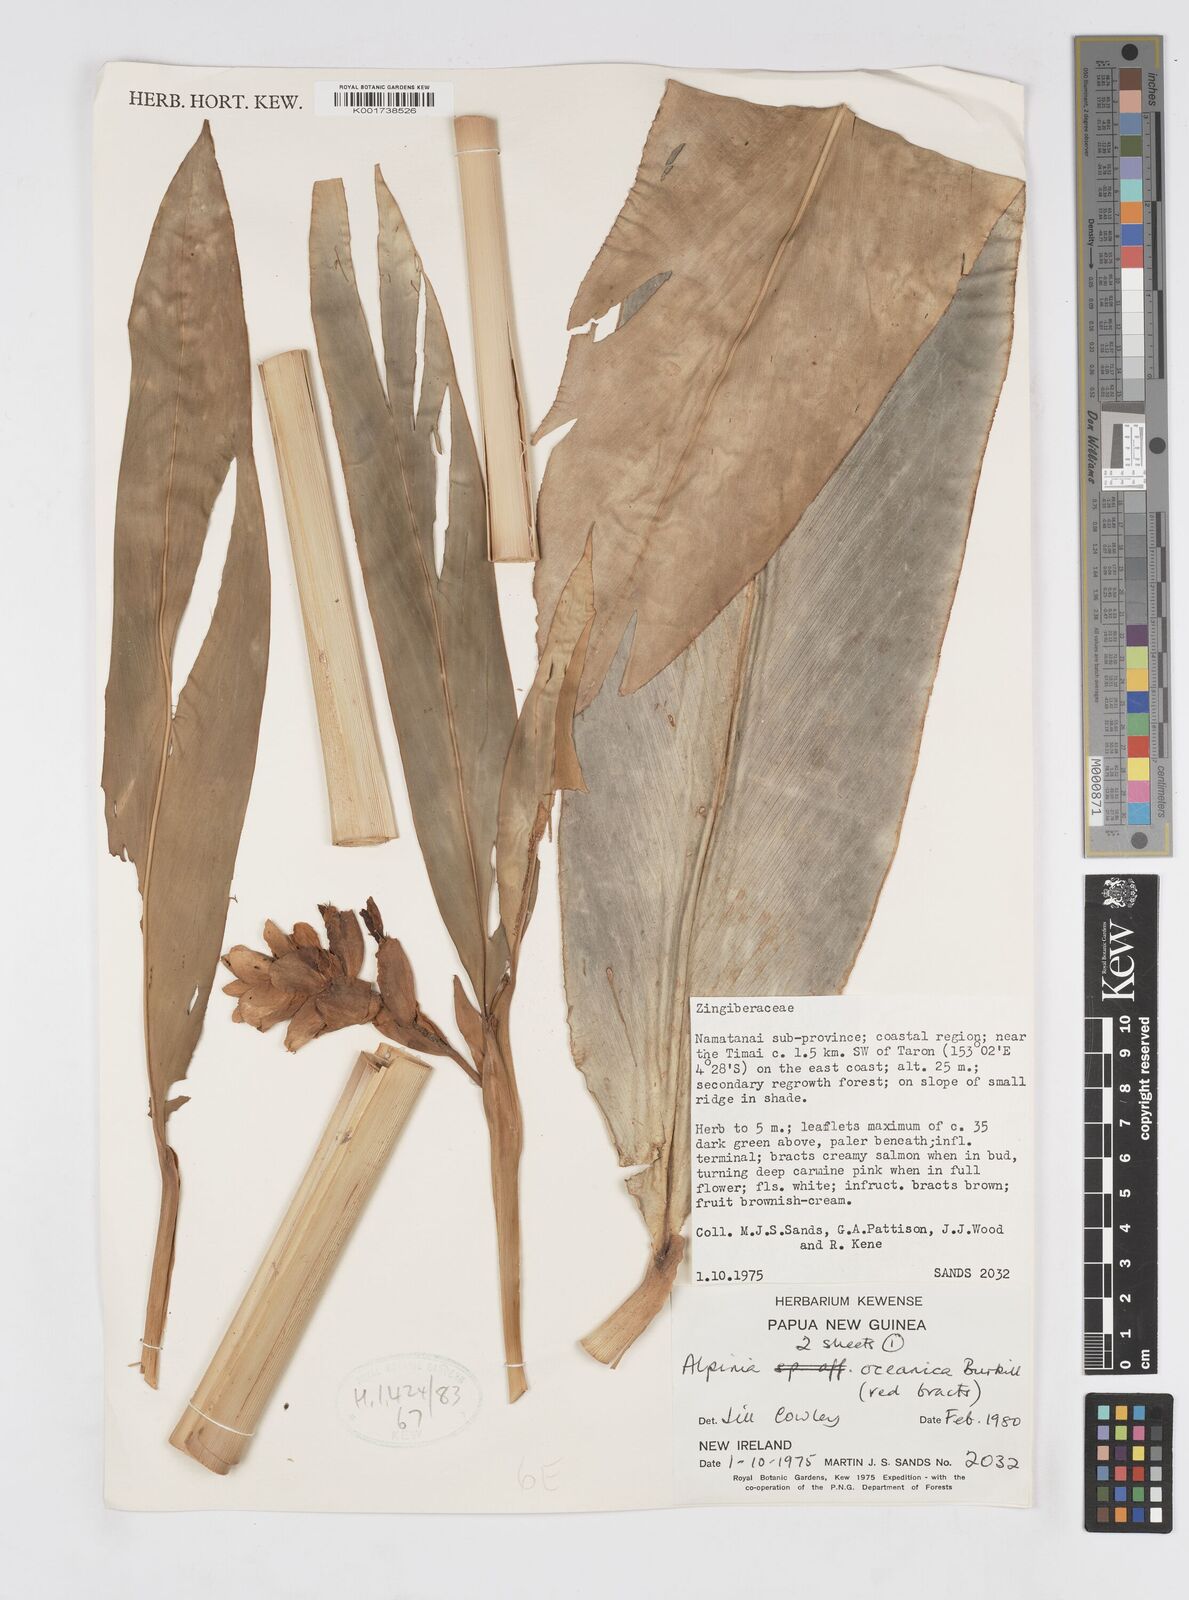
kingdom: Plantae
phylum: Tracheophyta
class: Liliopsida
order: Zingiberales
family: Zingiberaceae
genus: Alpinia
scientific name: Alpinia oceanica
